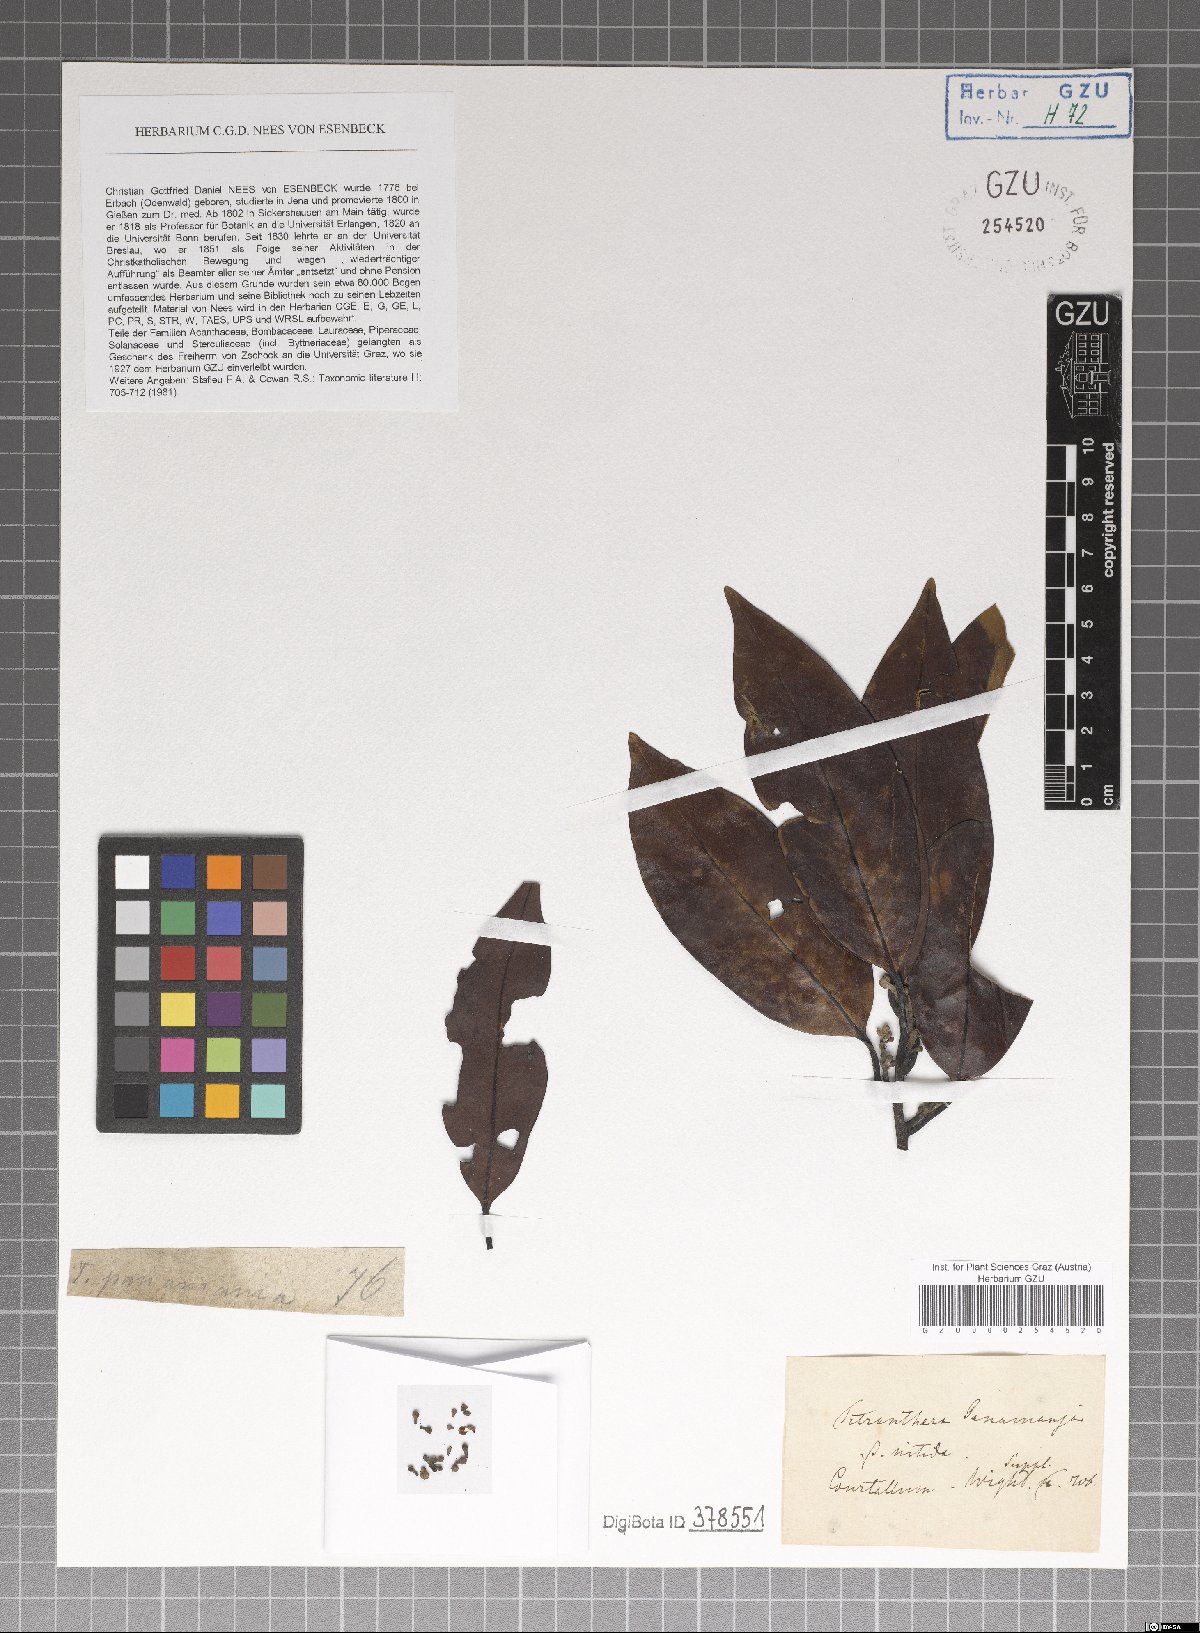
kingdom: Plantae
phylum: Tracheophyta
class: Magnoliopsida
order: Laurales
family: Lauraceae
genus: Litsea
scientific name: Litsea panamanja
